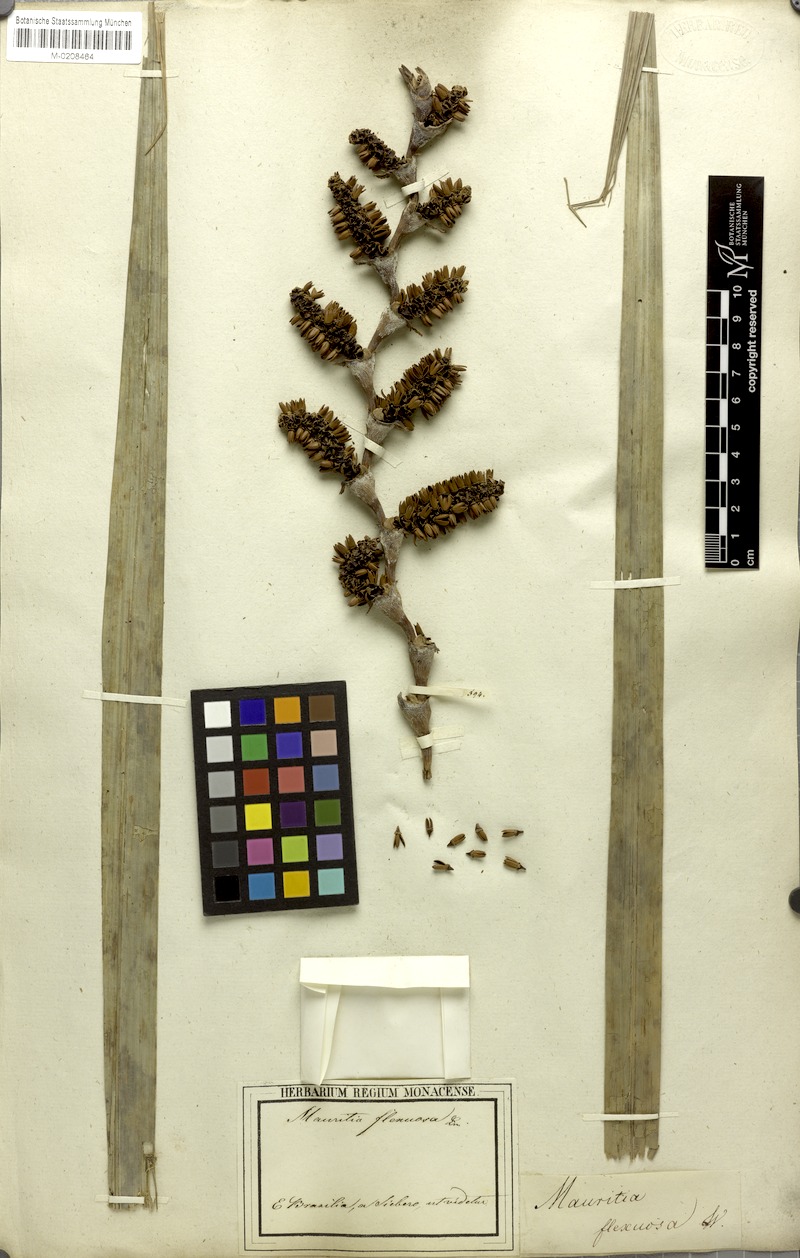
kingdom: Plantae
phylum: Tracheophyta
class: Liliopsida
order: Arecales
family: Arecaceae
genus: Mauritia
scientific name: Mauritia flexuosa
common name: Tree-of-life
